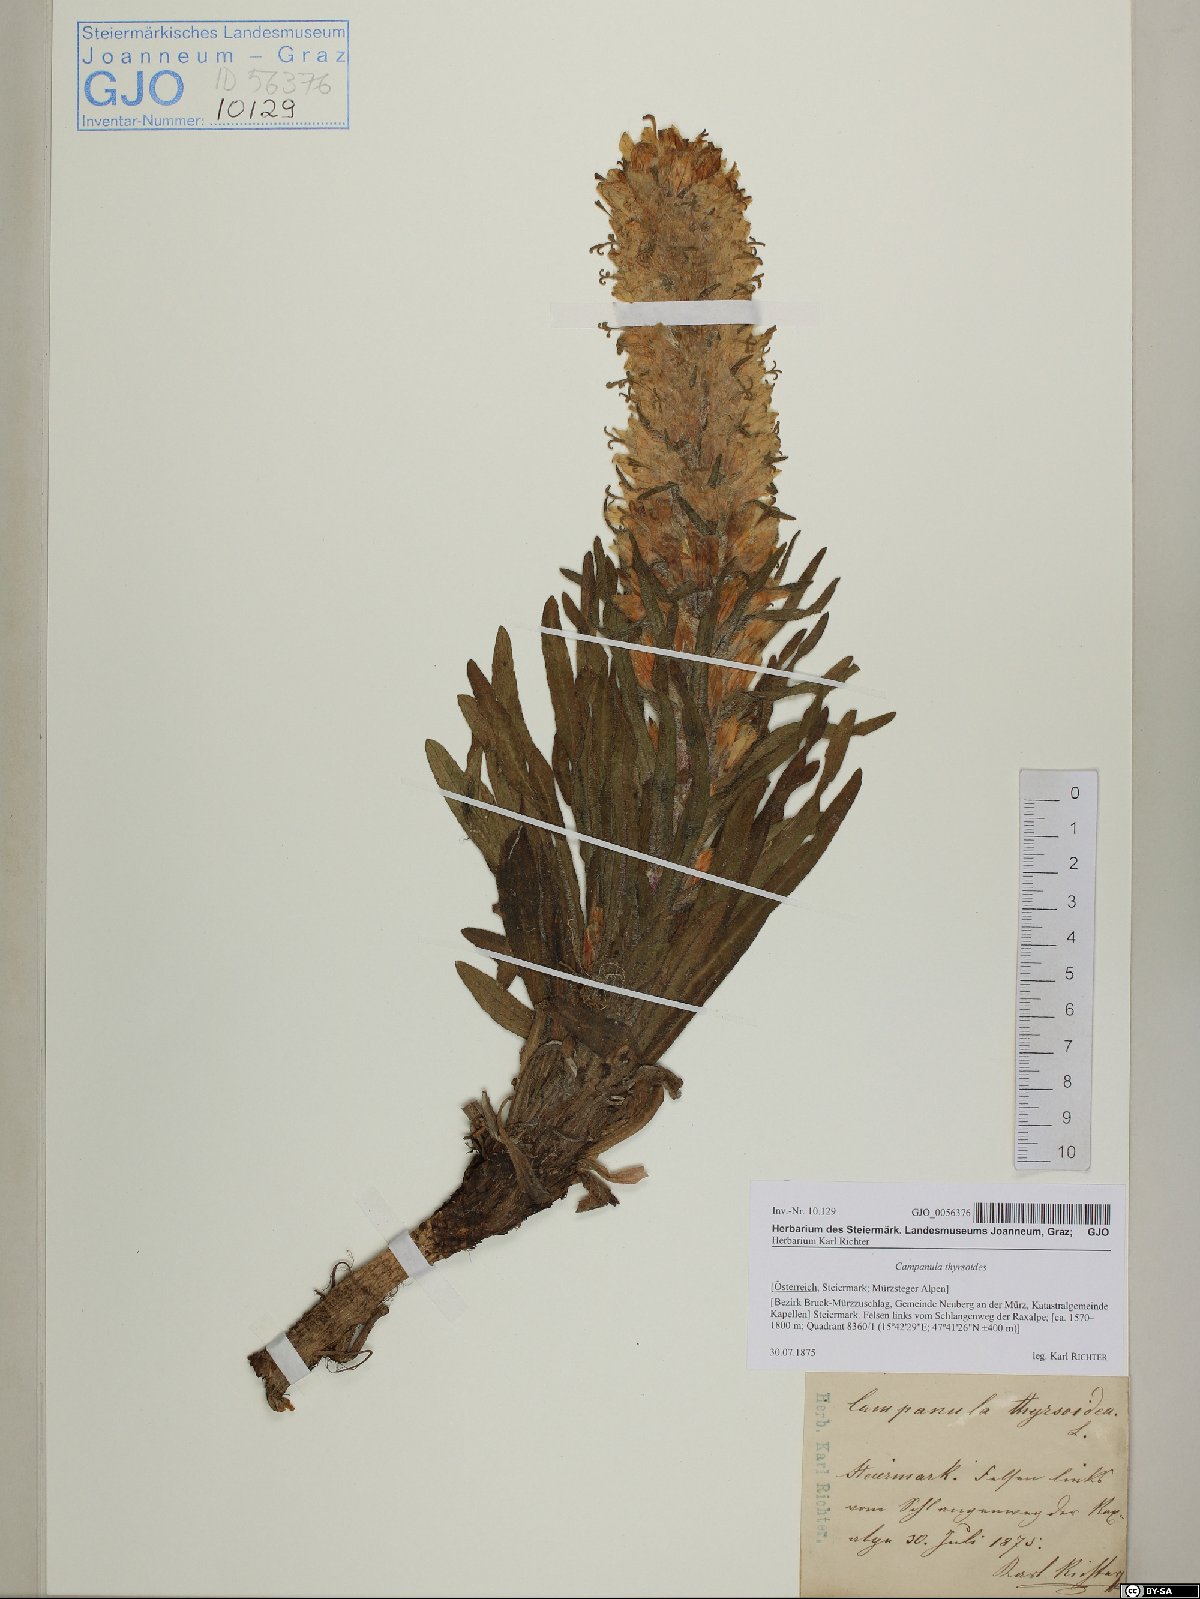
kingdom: Plantae
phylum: Tracheophyta
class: Magnoliopsida
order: Asterales
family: Campanulaceae
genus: Campanula
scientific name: Campanula thyrsoides
